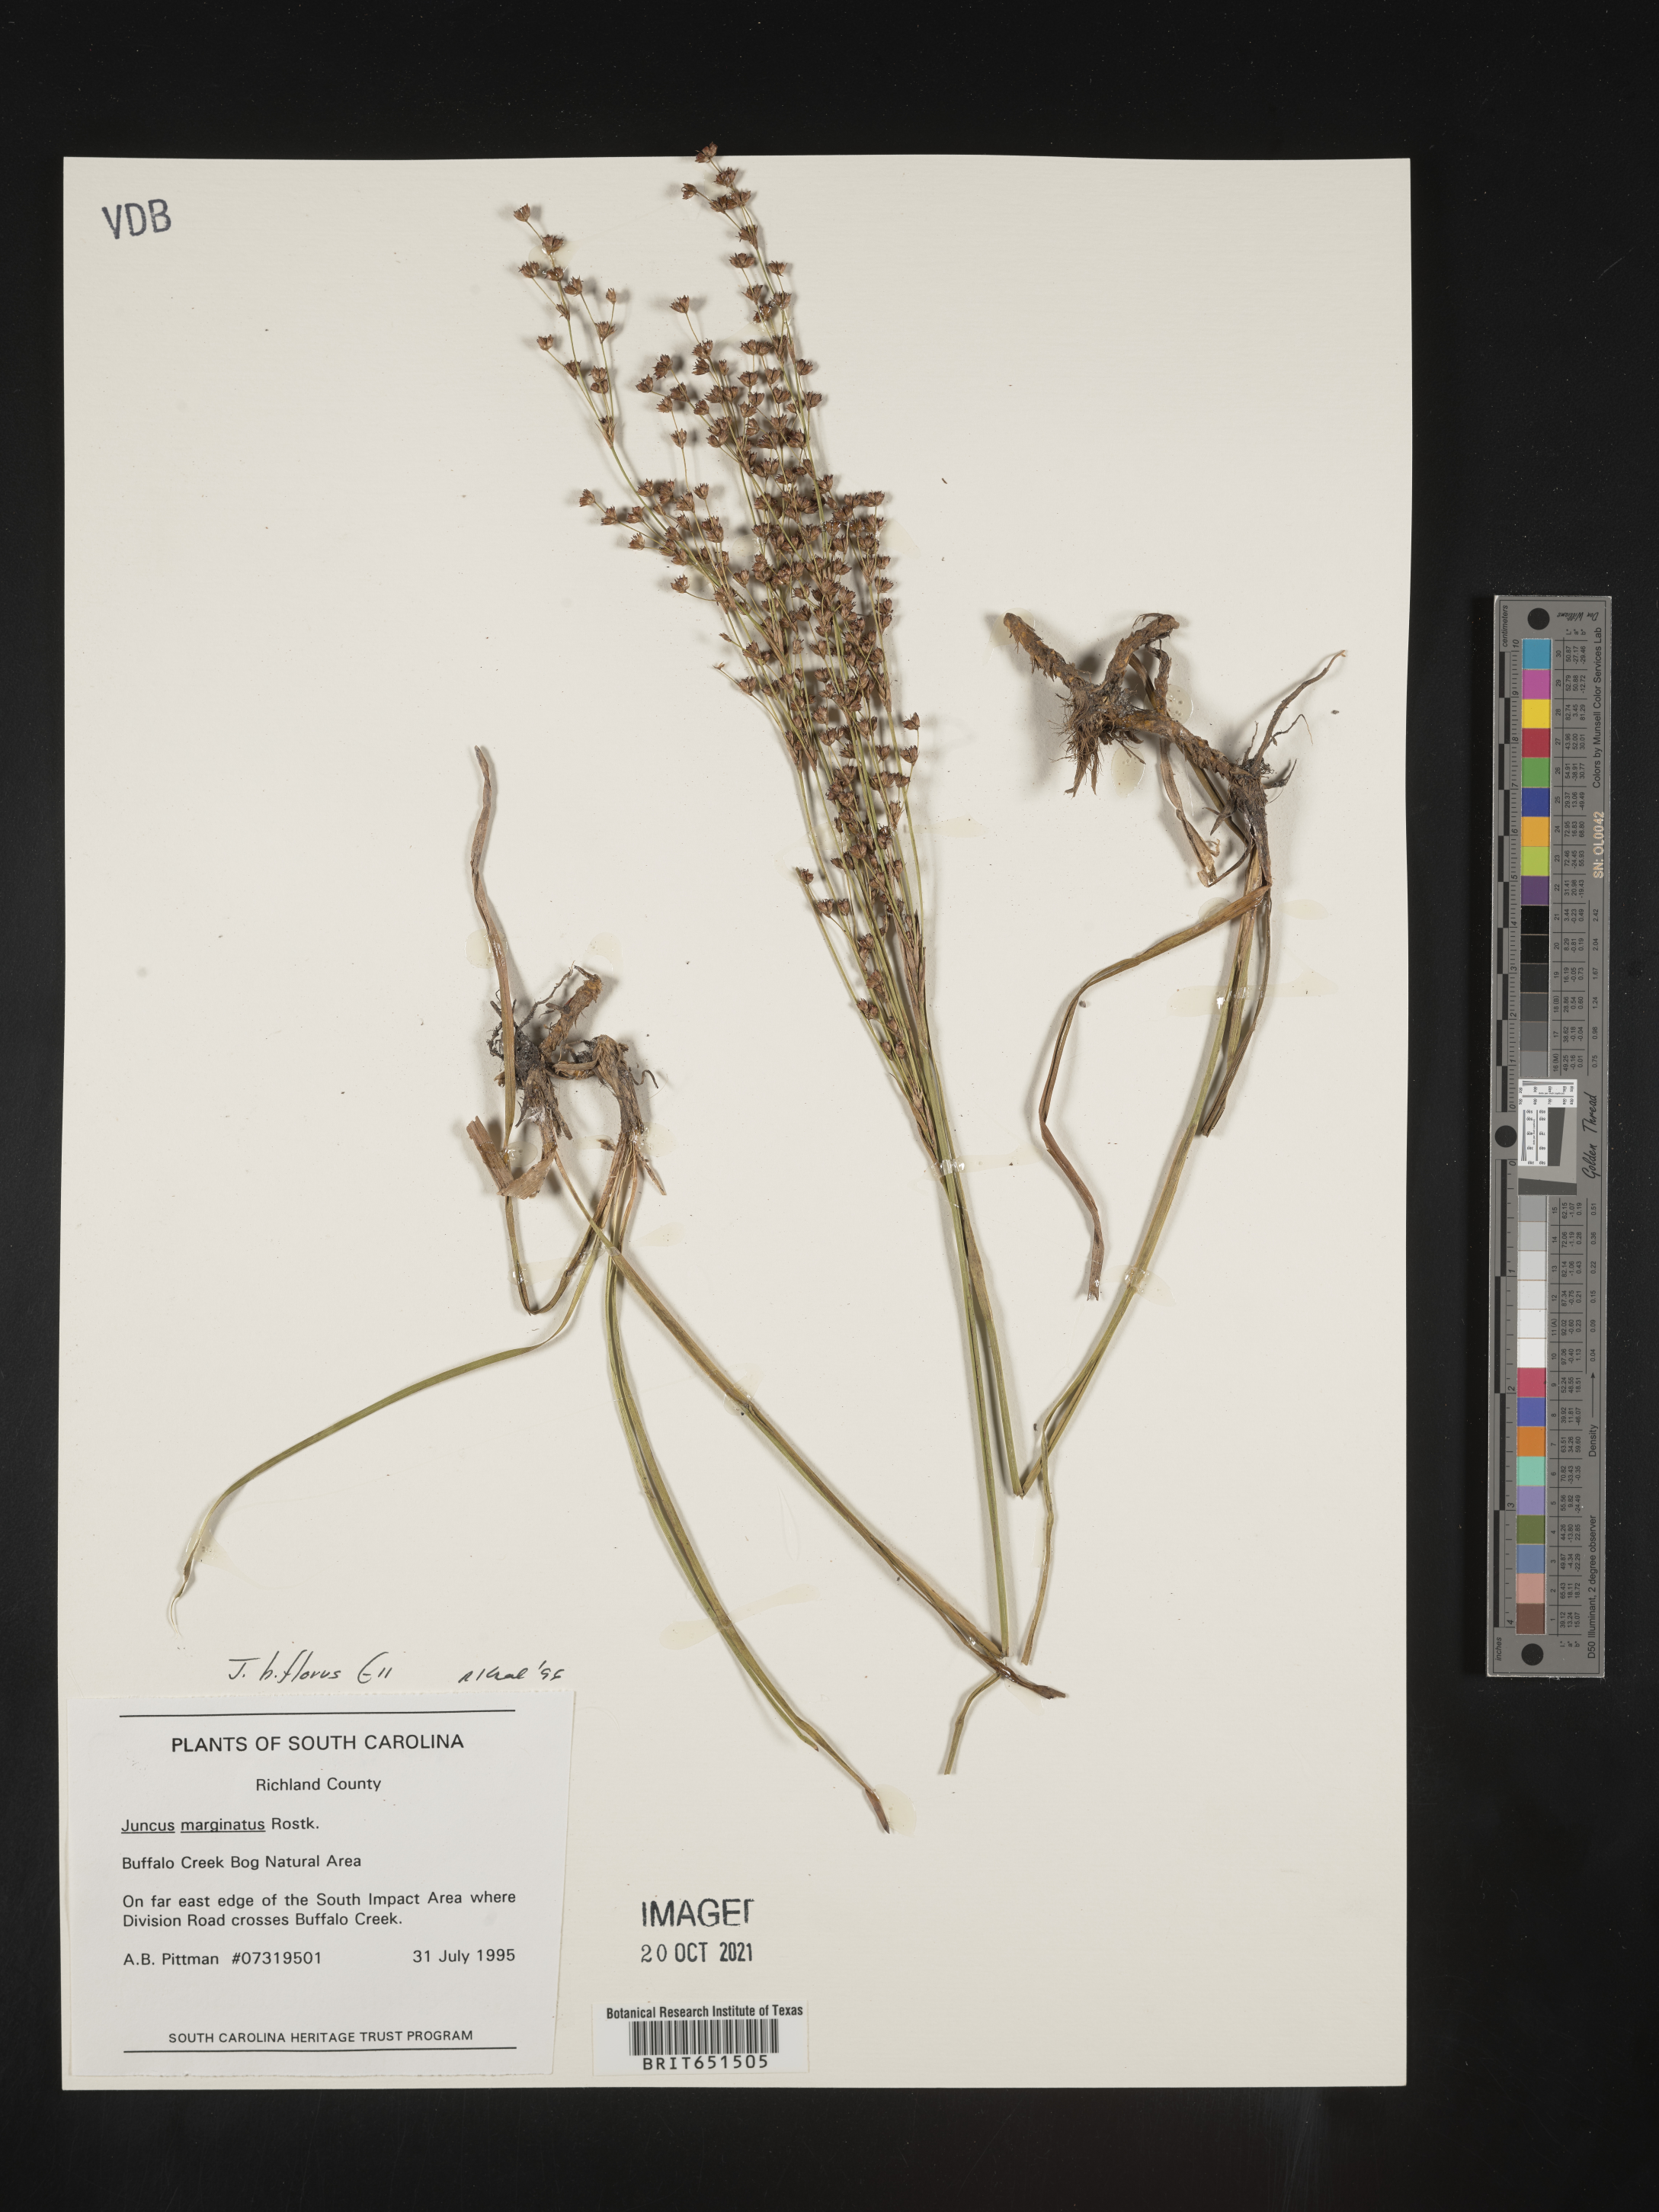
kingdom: Plantae
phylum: Tracheophyta
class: Liliopsida
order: Poales
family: Juncaceae
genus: Juncus
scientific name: Juncus biflorus
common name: Two-flowered rush
